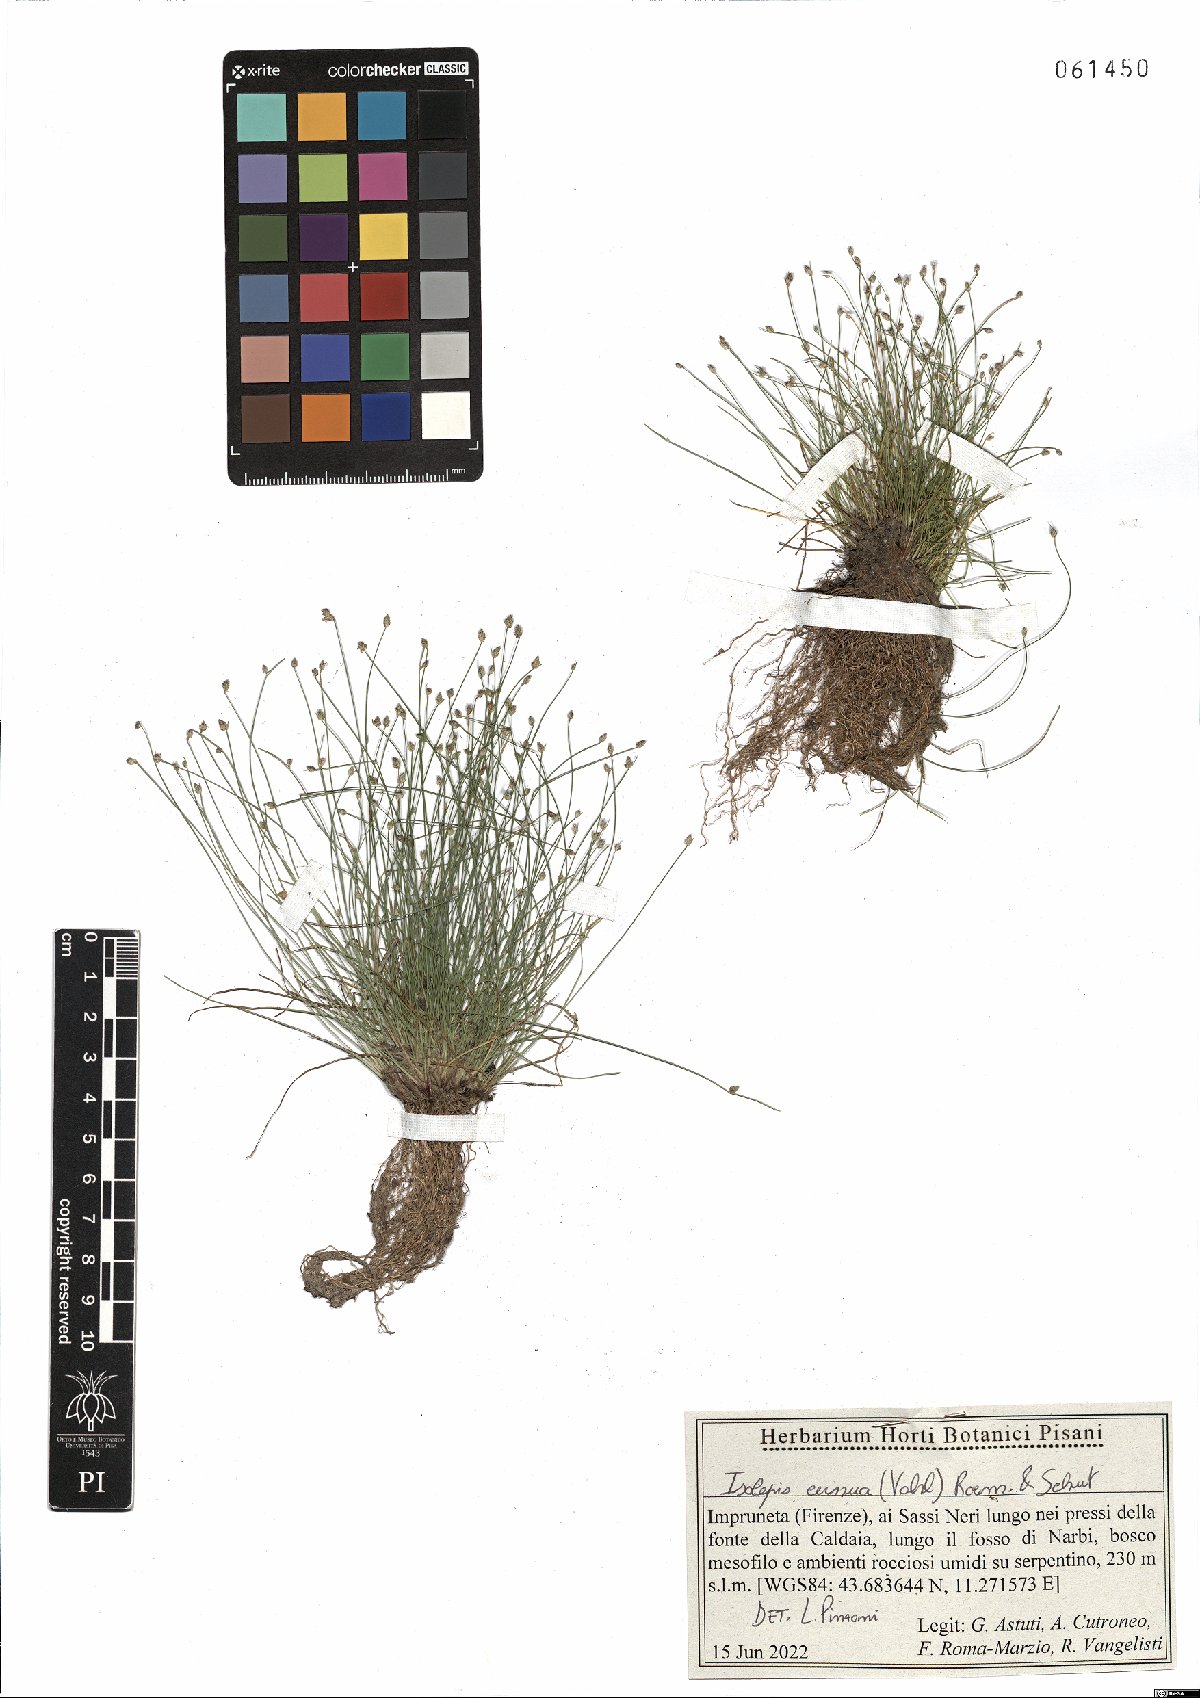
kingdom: Plantae
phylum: Tracheophyta
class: Liliopsida
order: Poales
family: Cyperaceae
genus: Isolepis
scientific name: Isolepis cernua
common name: Slender club-rush
